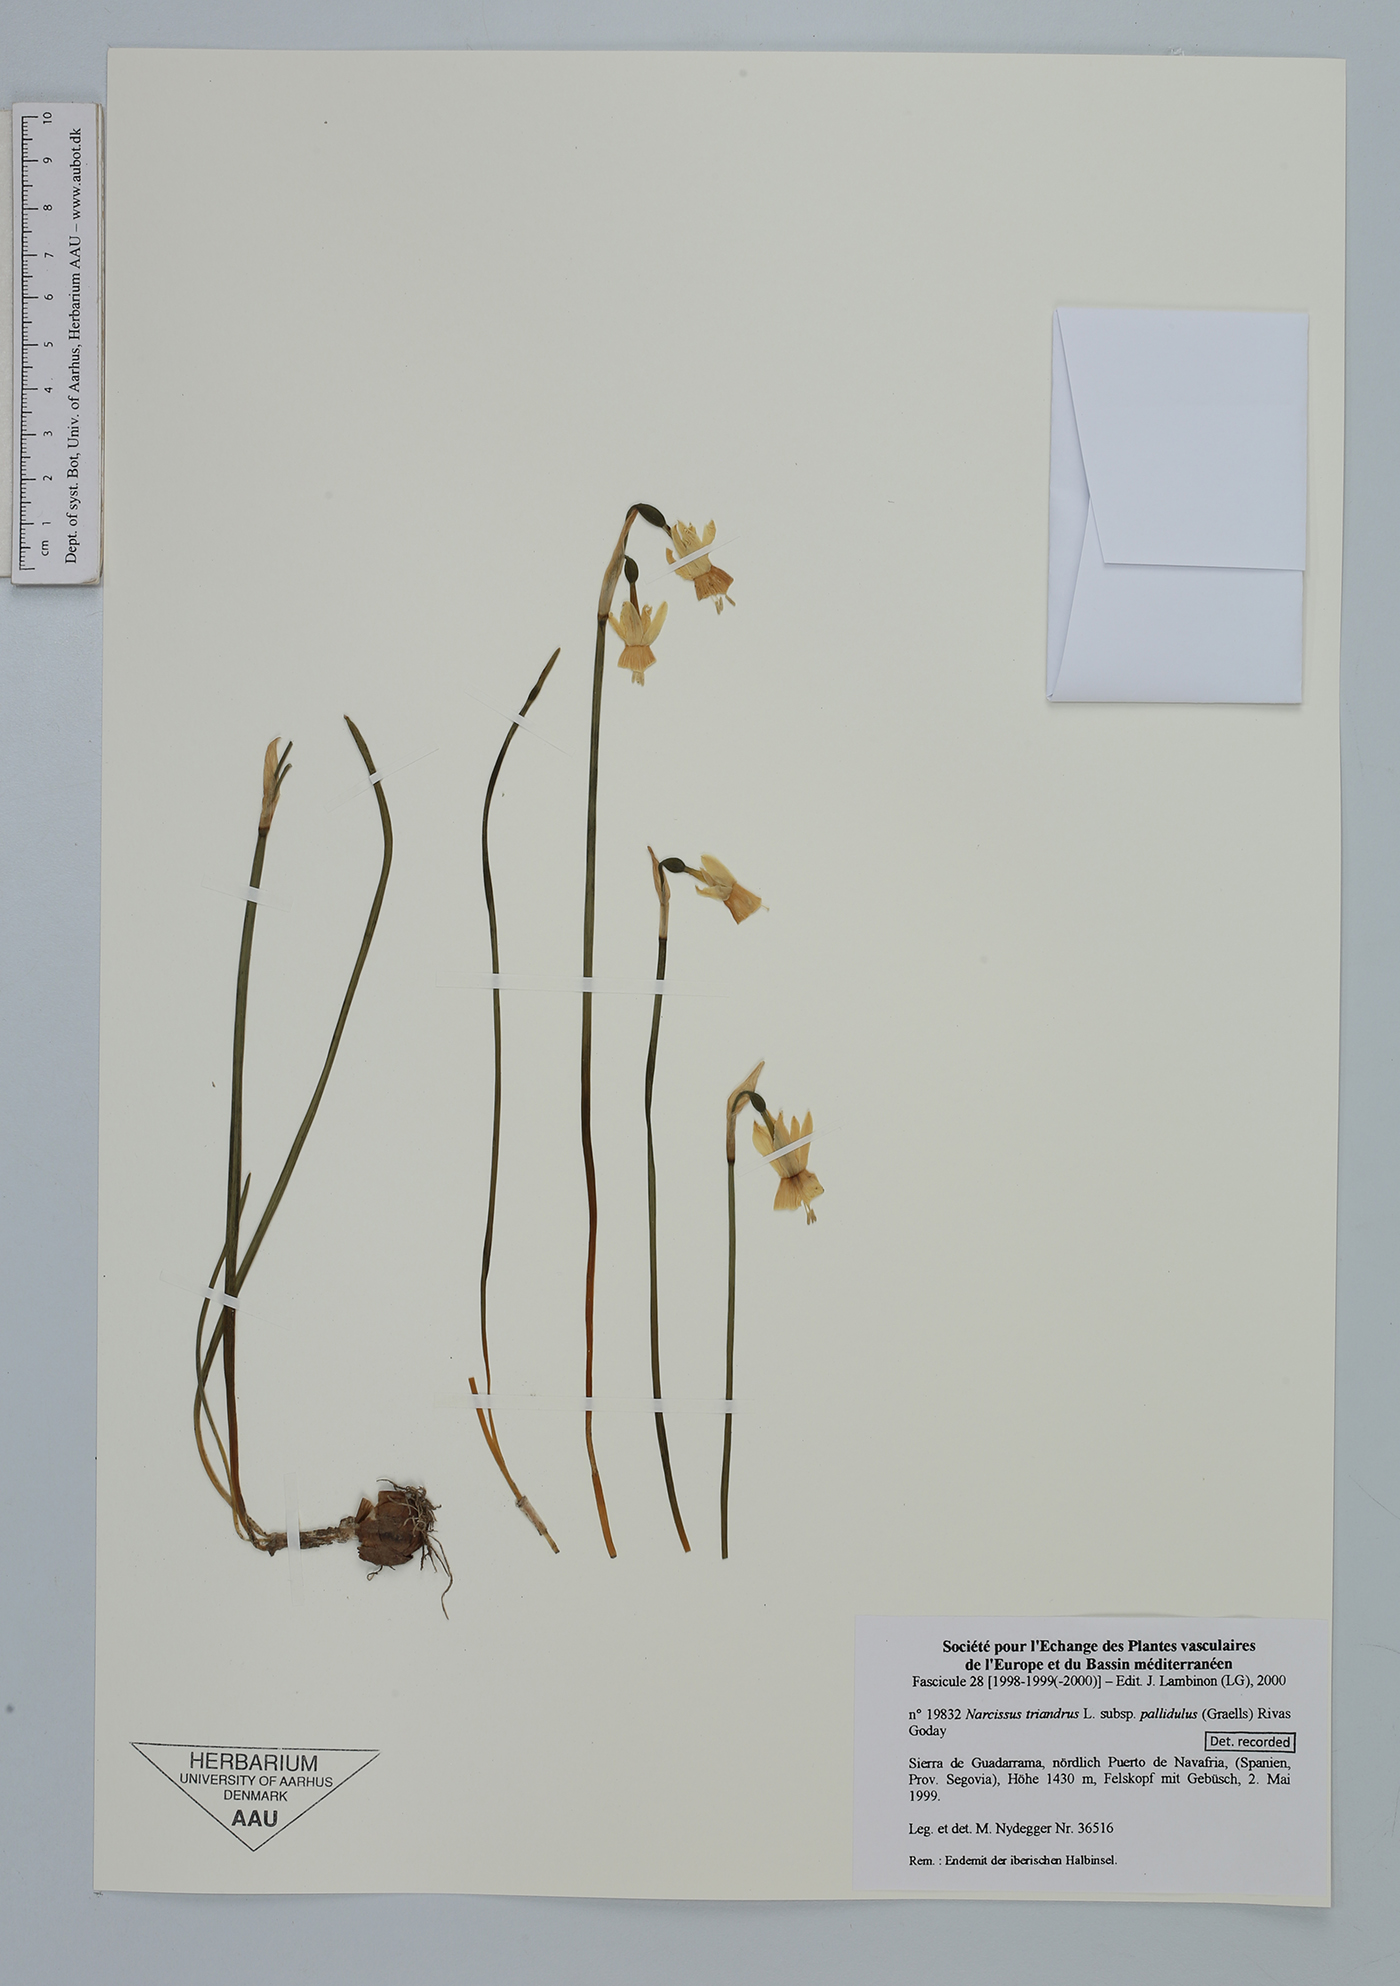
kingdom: Plantae
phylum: Tracheophyta
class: Liliopsida
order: Asparagales
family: Amaryllidaceae
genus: Narcissus
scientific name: Narcissus triandrus
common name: Angel's-tears
